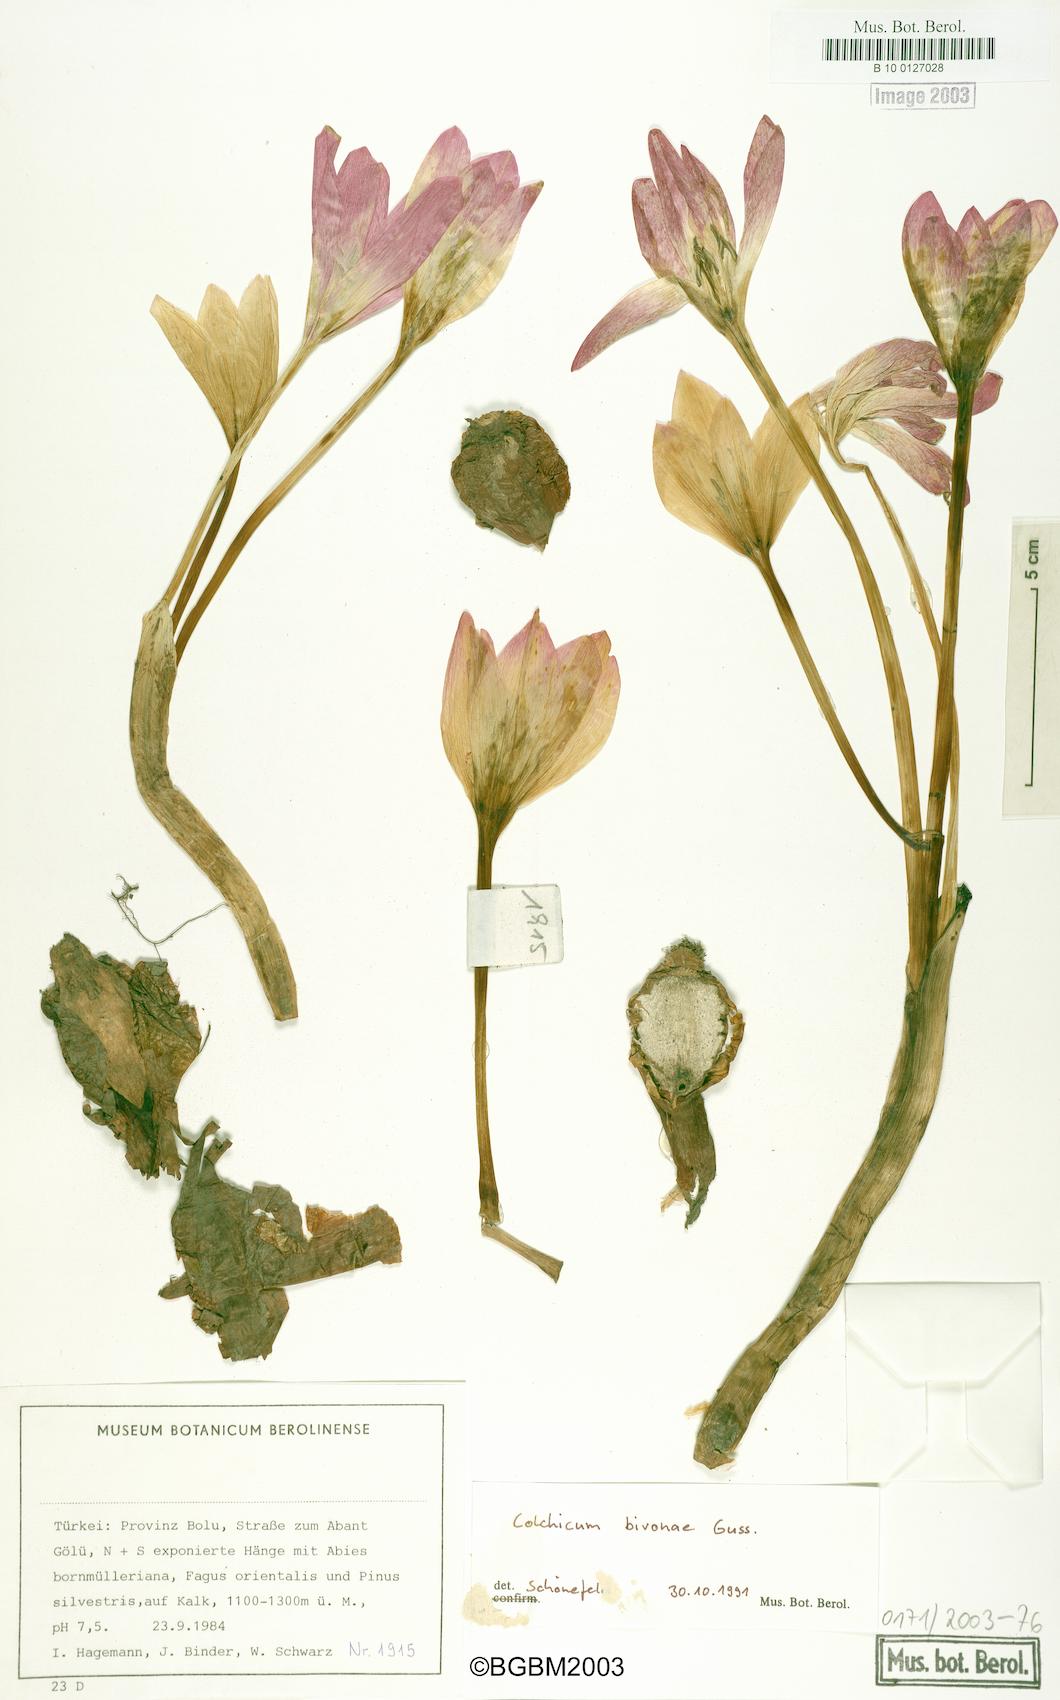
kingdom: Plantae
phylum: Tracheophyta
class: Liliopsida
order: Liliales
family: Colchicaceae
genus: Colchicum
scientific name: Colchicum bivonae
